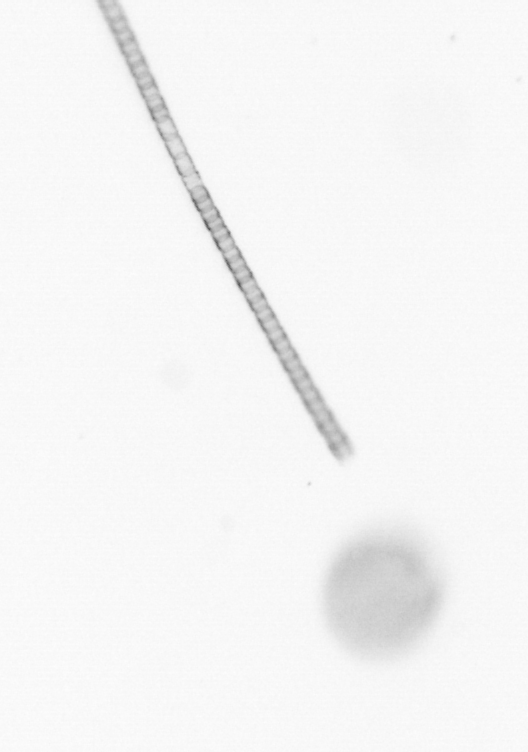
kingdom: Chromista
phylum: Ochrophyta
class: Bacillariophyceae
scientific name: Bacillariophyceae
